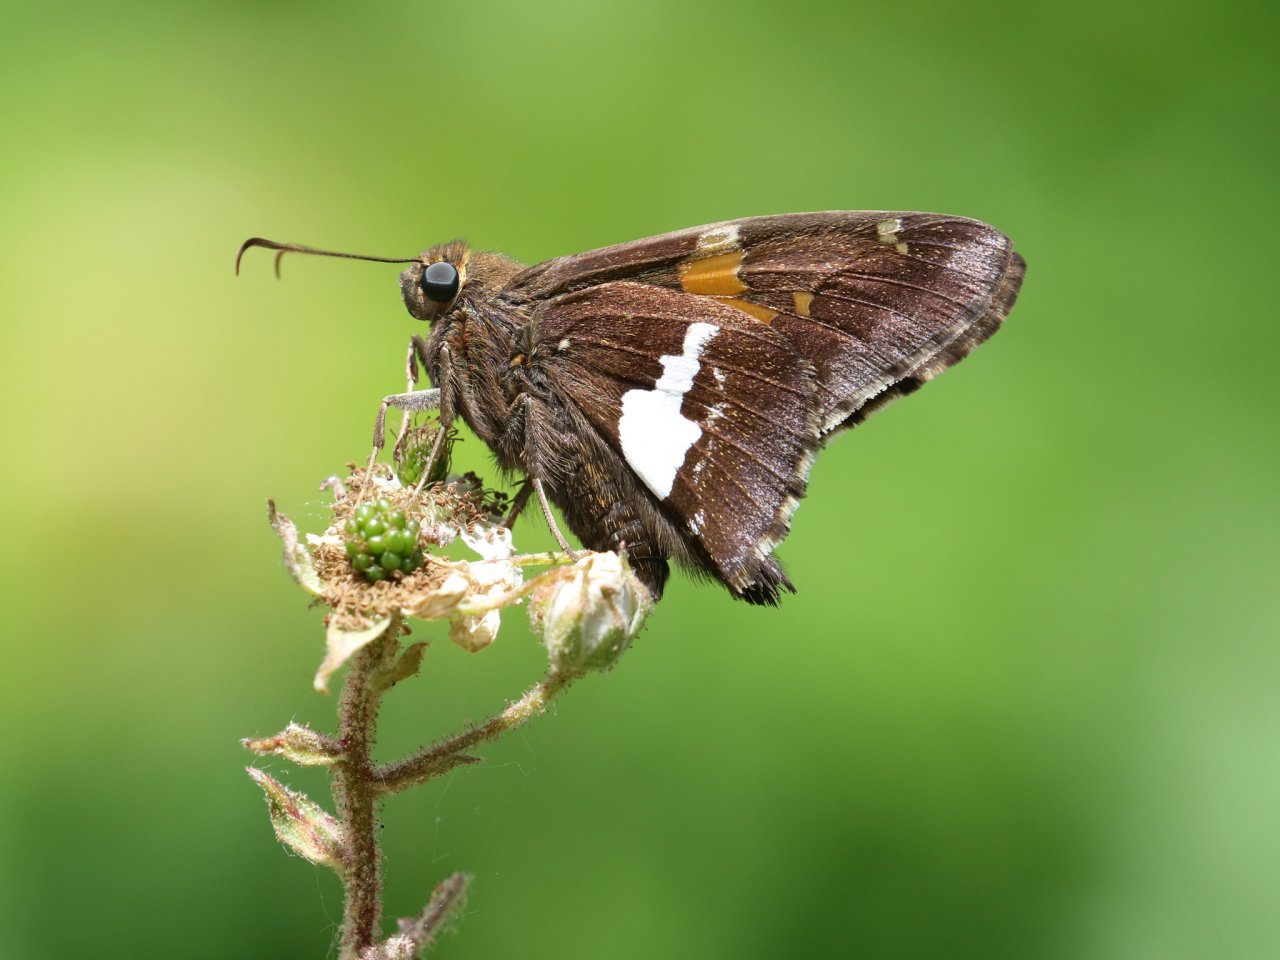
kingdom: Animalia
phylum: Arthropoda
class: Insecta
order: Lepidoptera
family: Hesperiidae
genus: Epargyreus
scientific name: Epargyreus clarus
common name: Silver-spotted Skipper
